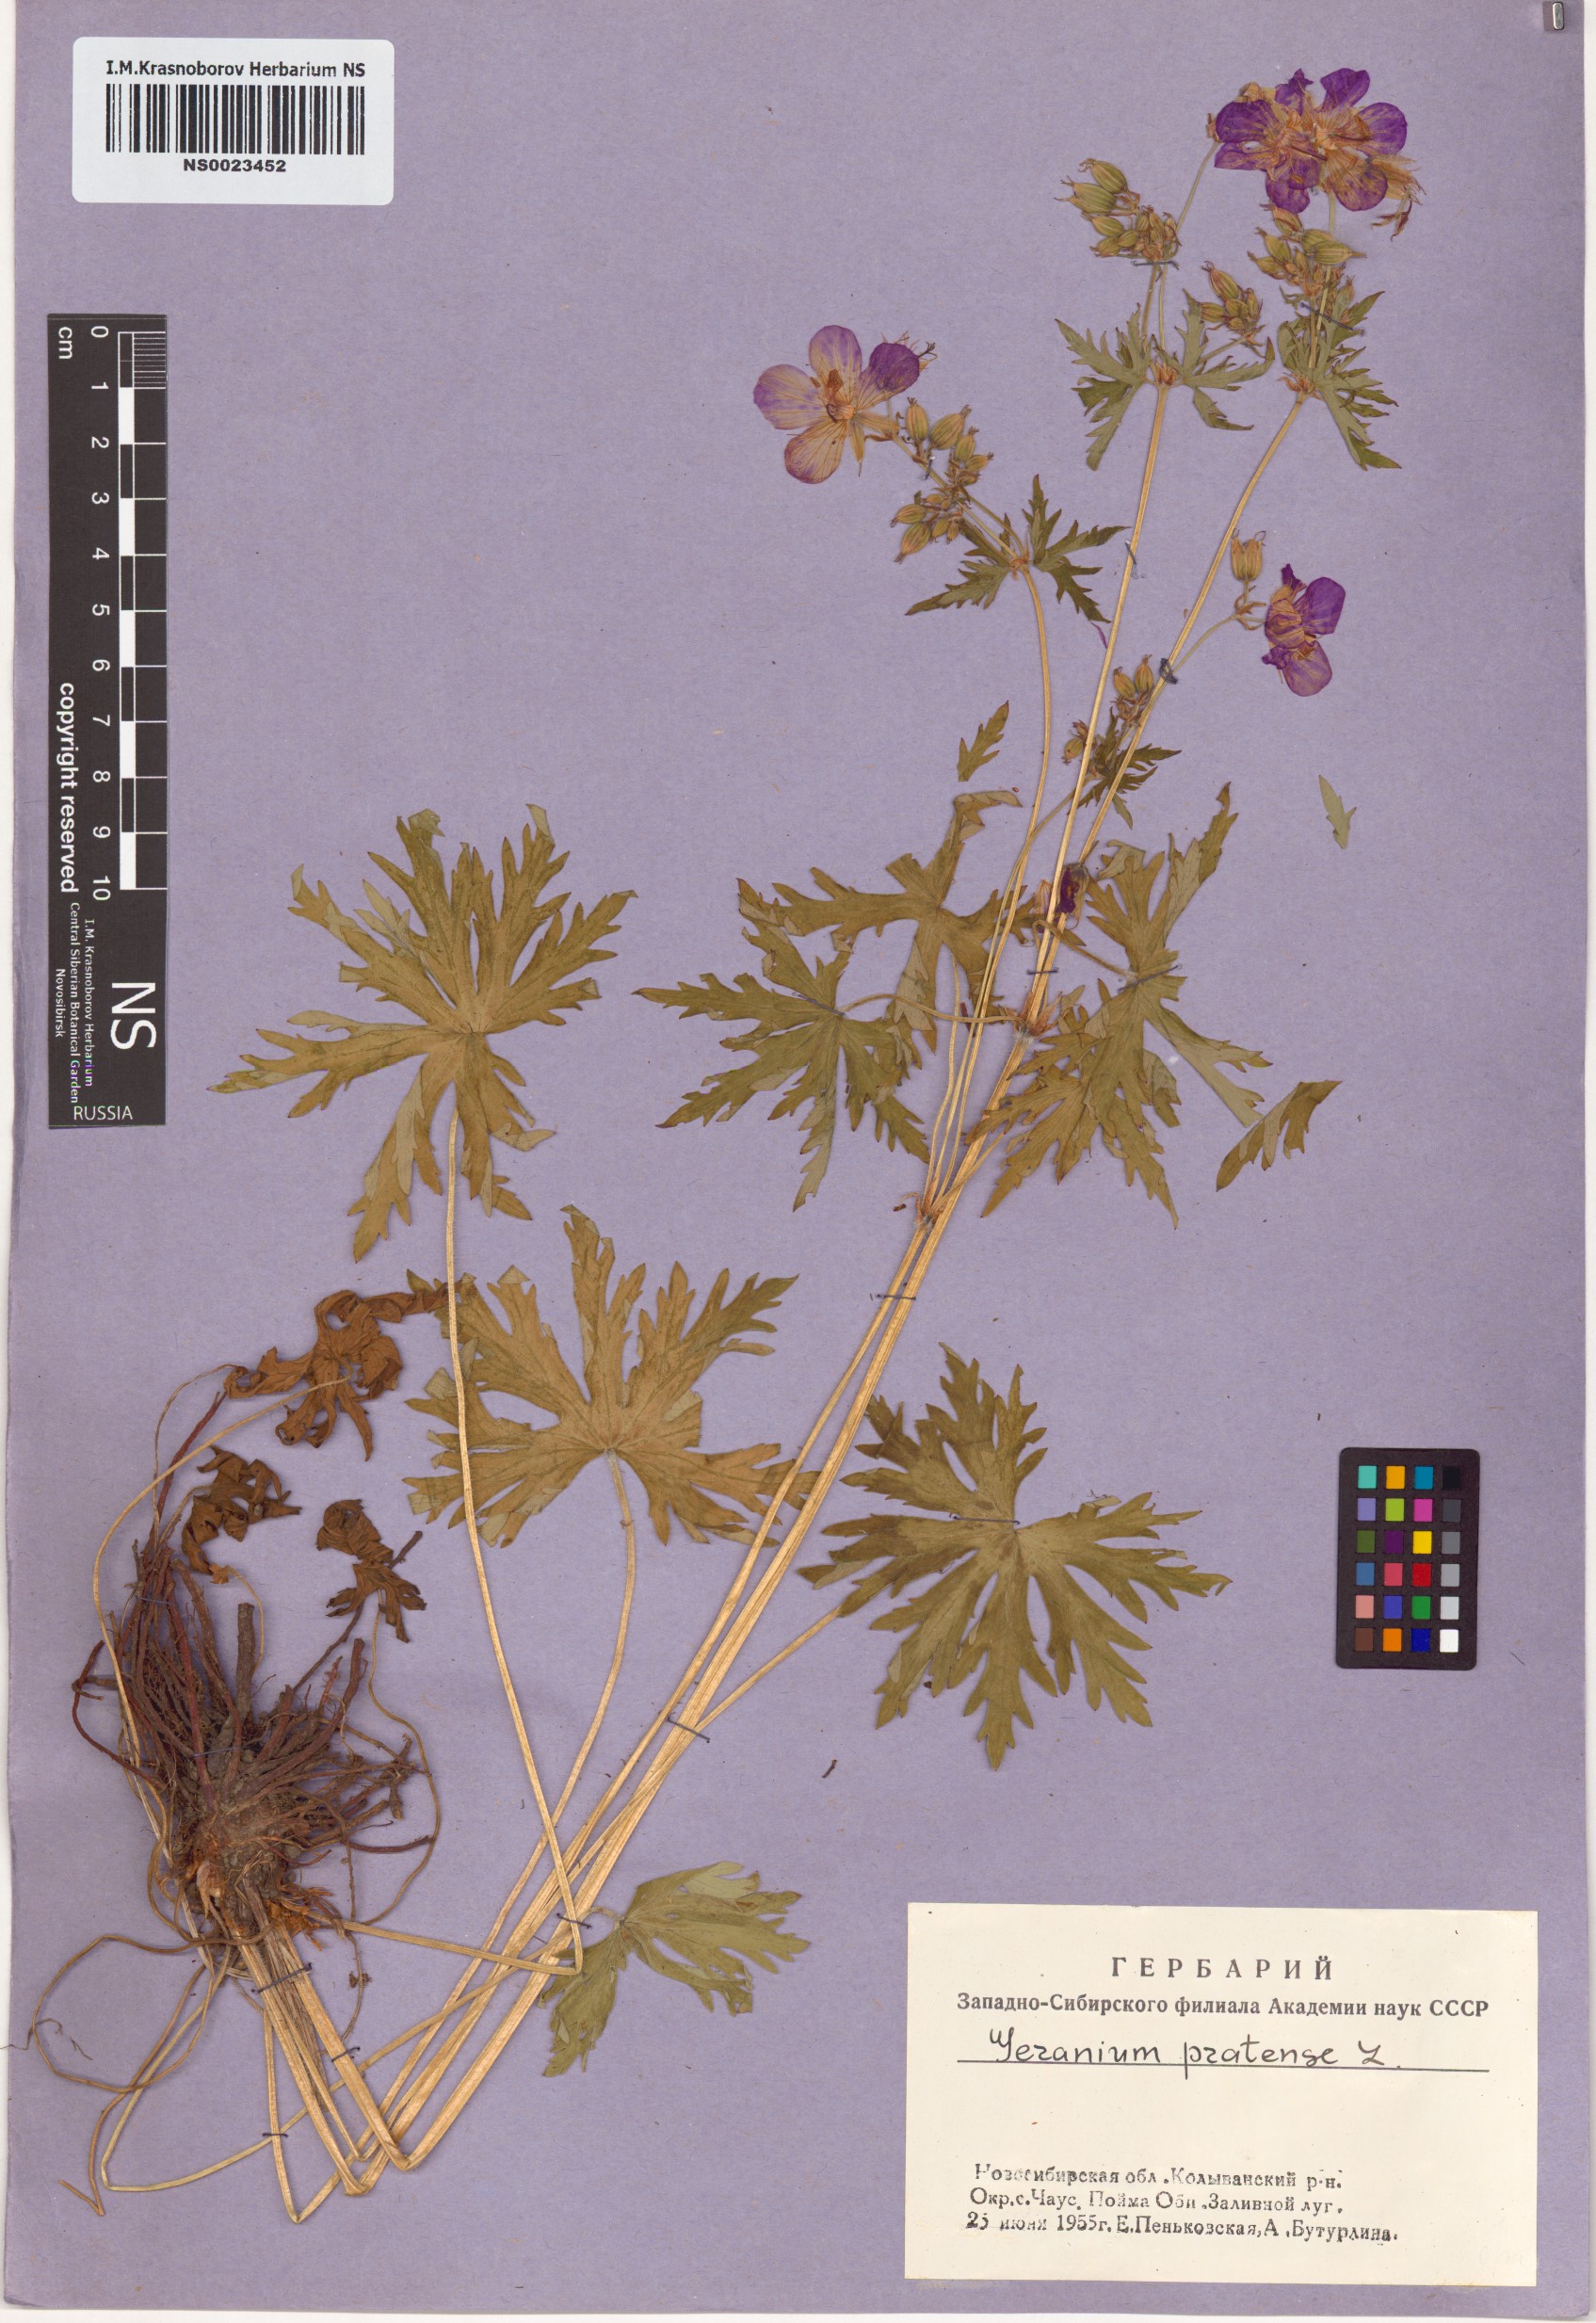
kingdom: Plantae
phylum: Tracheophyta
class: Magnoliopsida
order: Geraniales
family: Geraniaceae
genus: Geranium
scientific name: Geranium pratense
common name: Meadow crane's-bill
